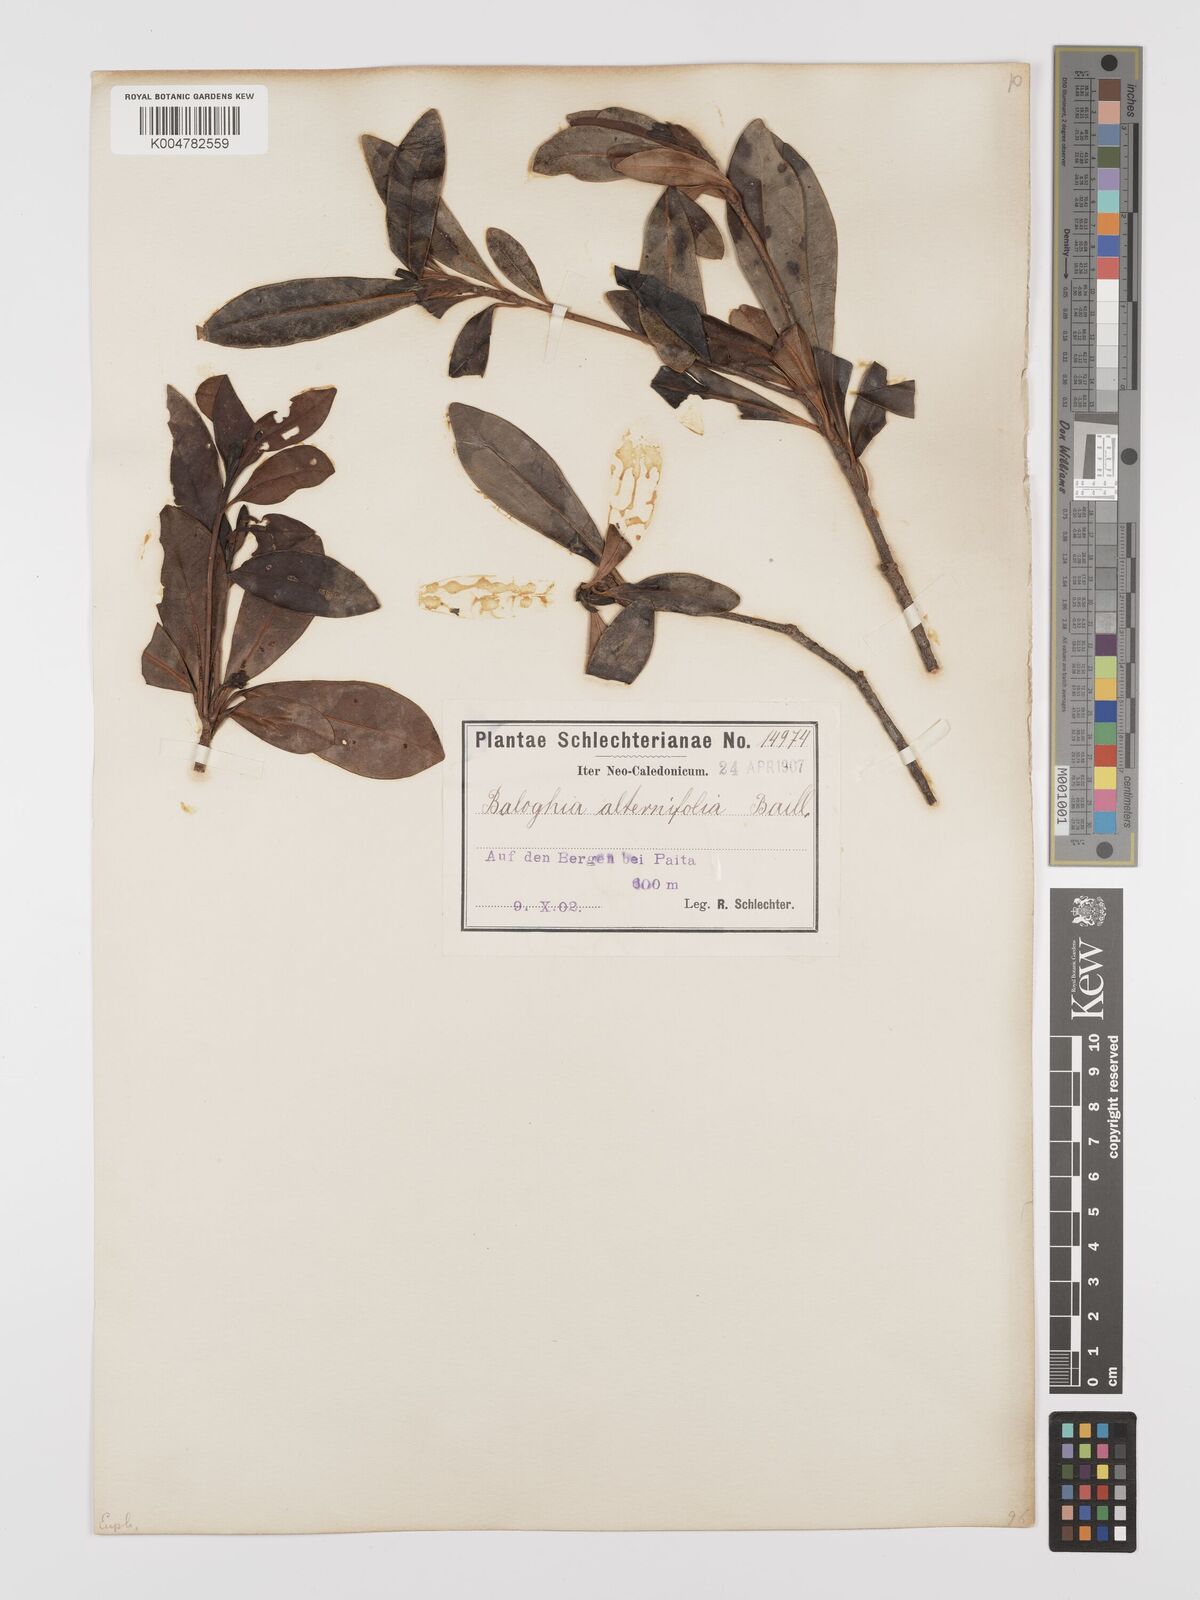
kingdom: Plantae
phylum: Tracheophyta
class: Magnoliopsida
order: Malpighiales
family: Euphorbiaceae
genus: Baloghia
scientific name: Baloghia alternifolia
